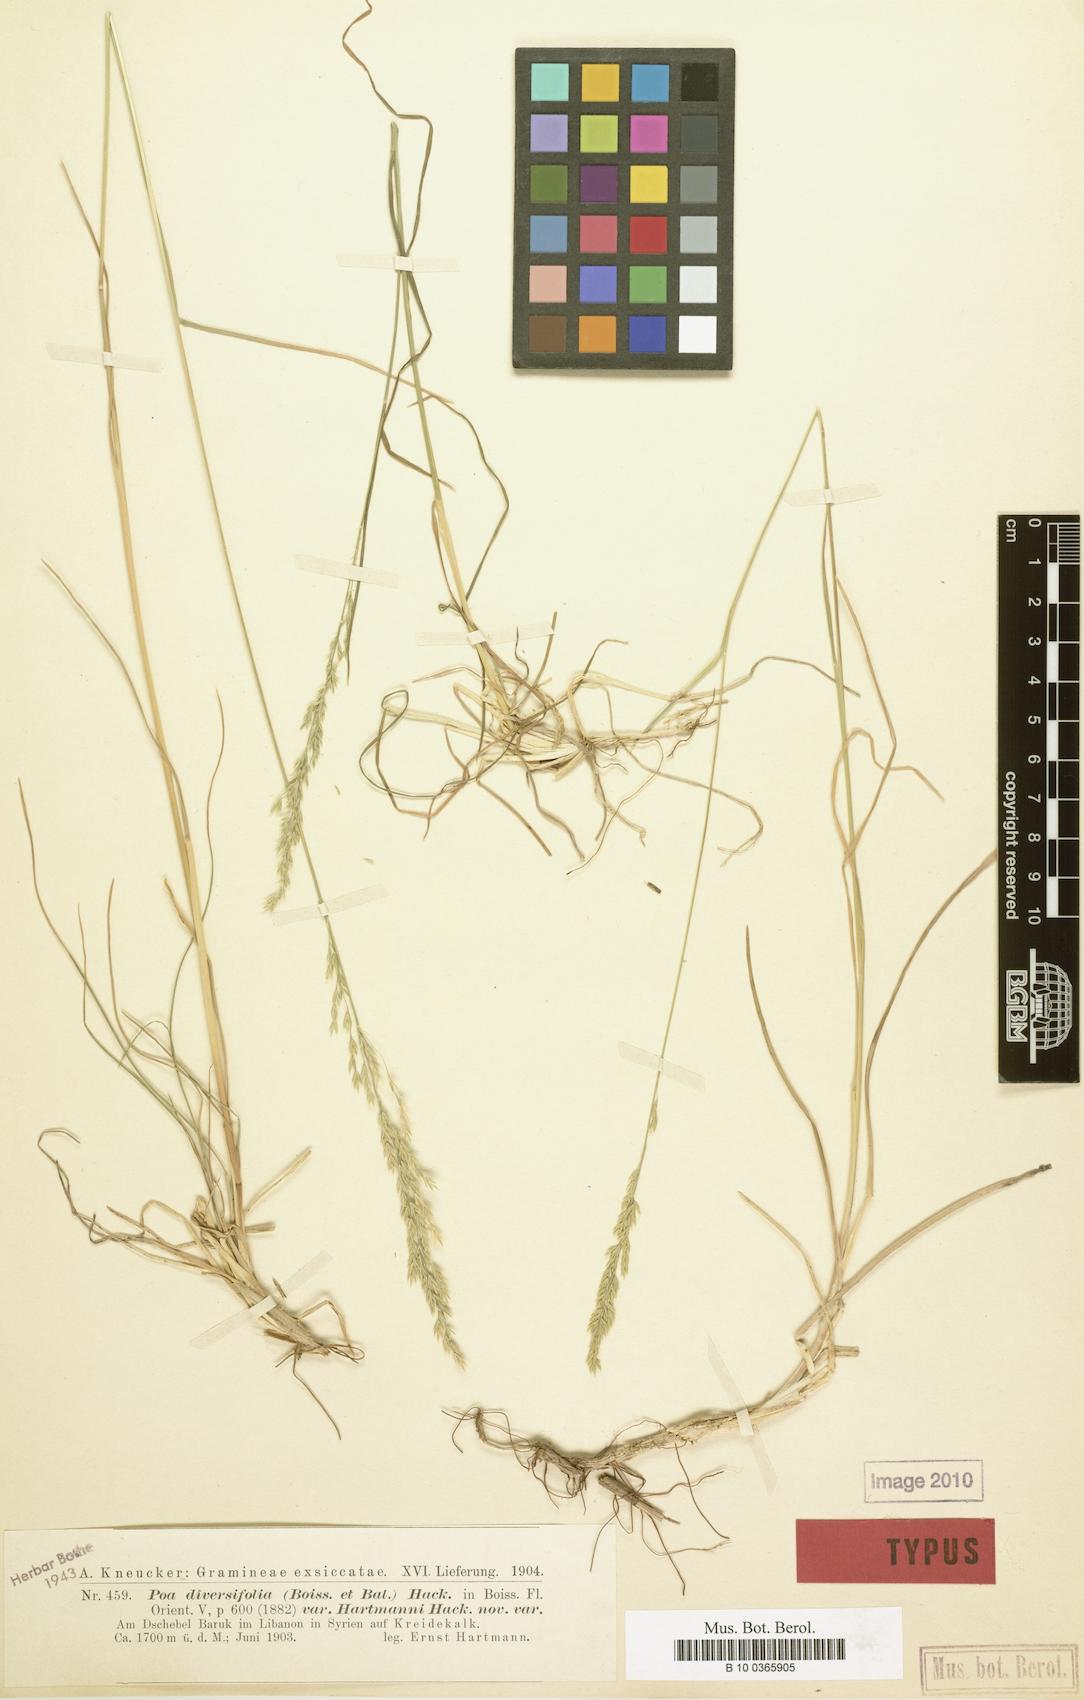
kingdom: Plantae
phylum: Tracheophyta
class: Liliopsida
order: Poales
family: Poaceae
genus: Poa
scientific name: Poa diversifolia
